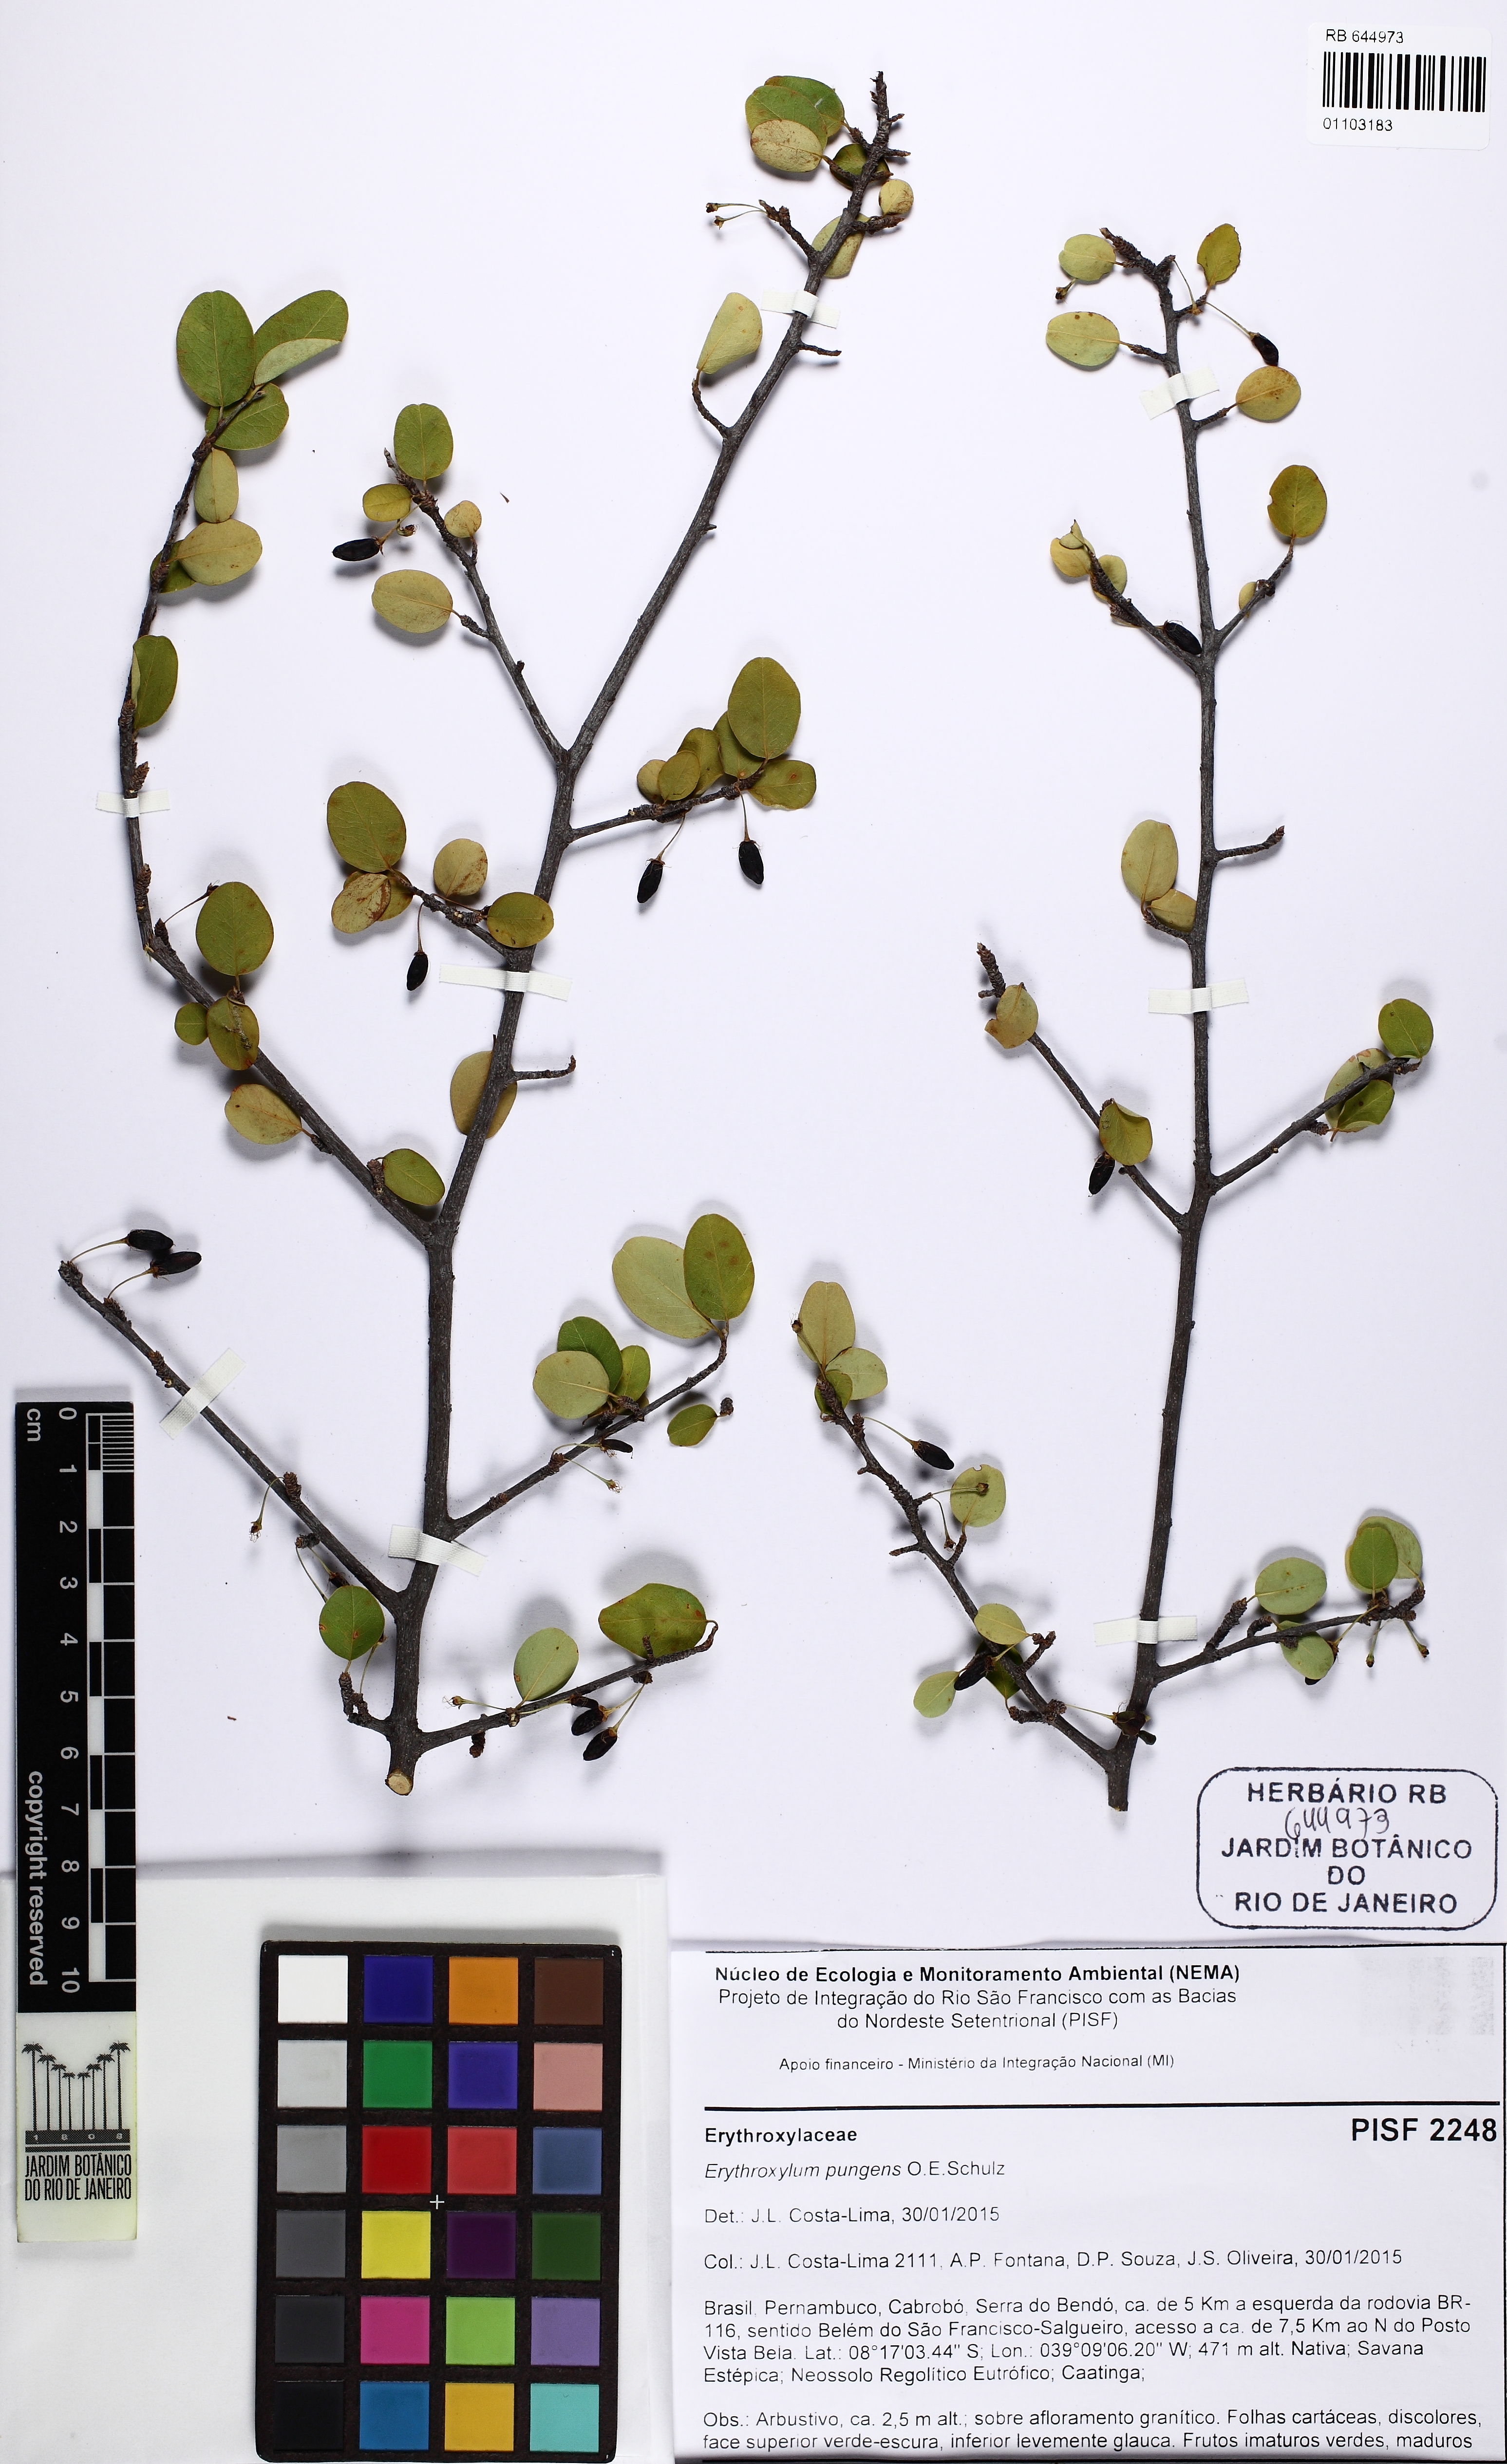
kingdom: Plantae
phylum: Tracheophyta
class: Magnoliopsida
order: Malpighiales
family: Erythroxylaceae
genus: Erythroxylum
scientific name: Erythroxylum pungens
